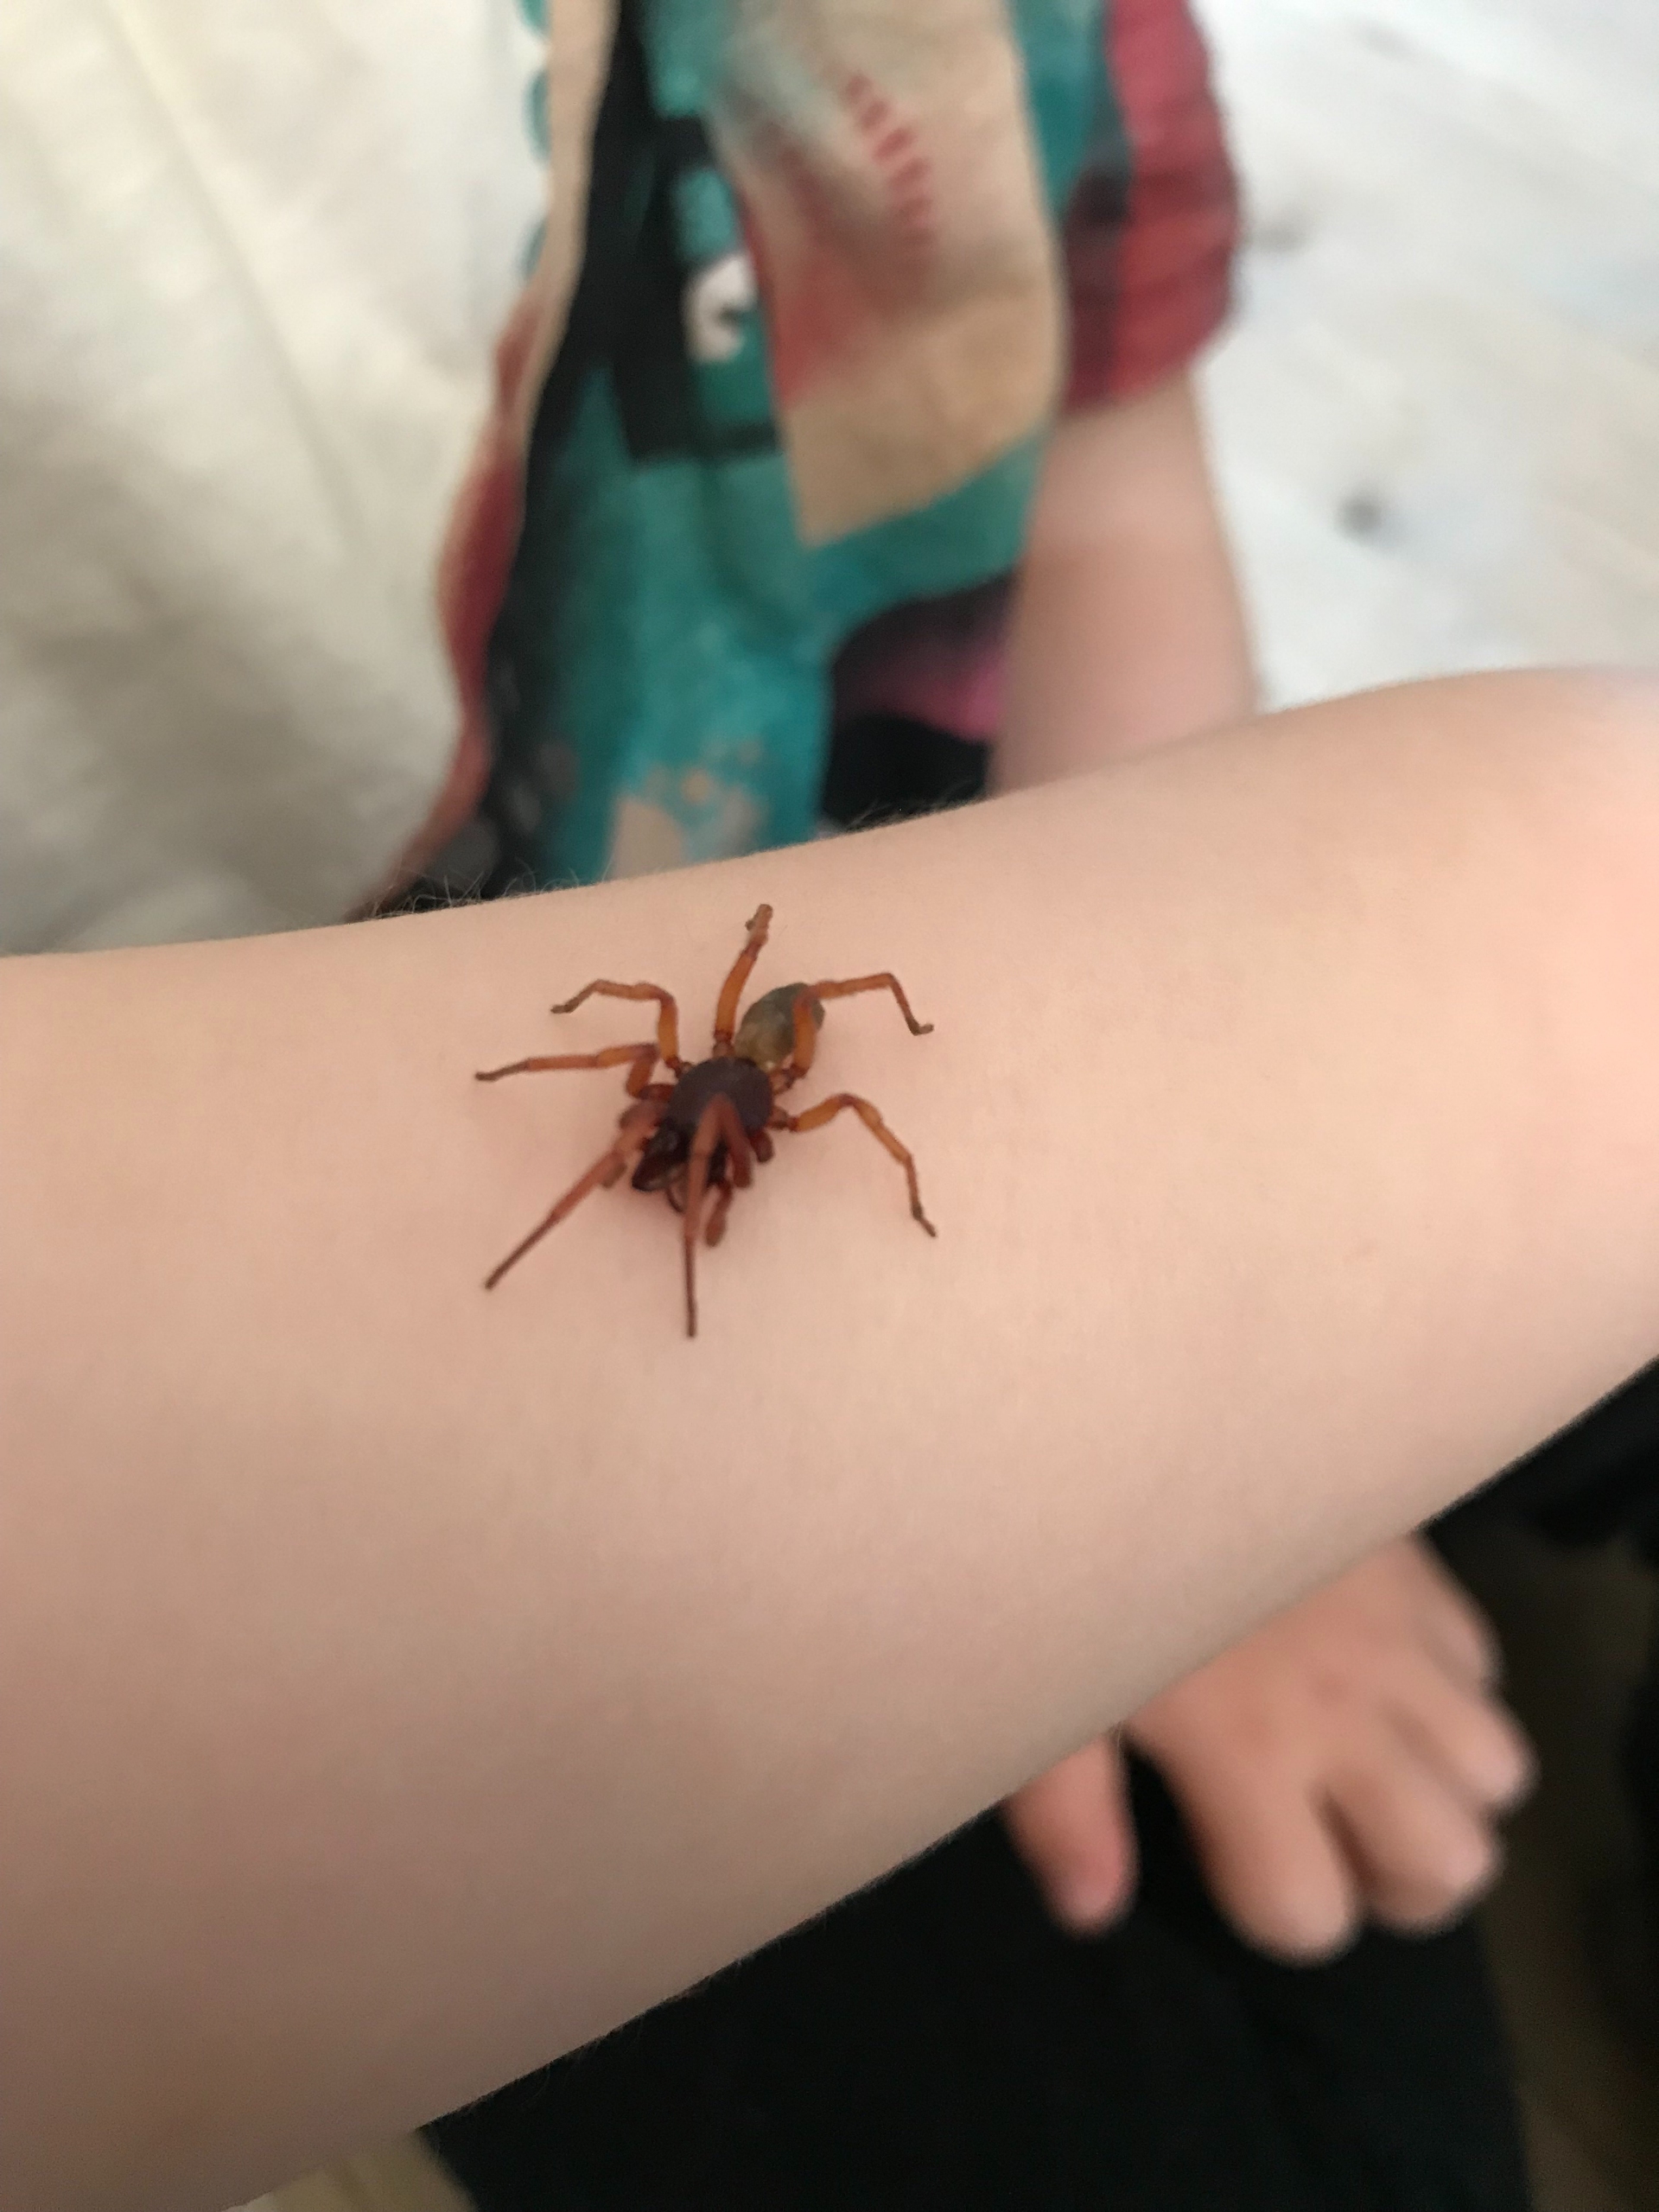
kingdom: Animalia
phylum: Arthropoda
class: Arachnida
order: Araneae
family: Dysderidae
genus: Dysdera
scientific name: Dysdera crocata
